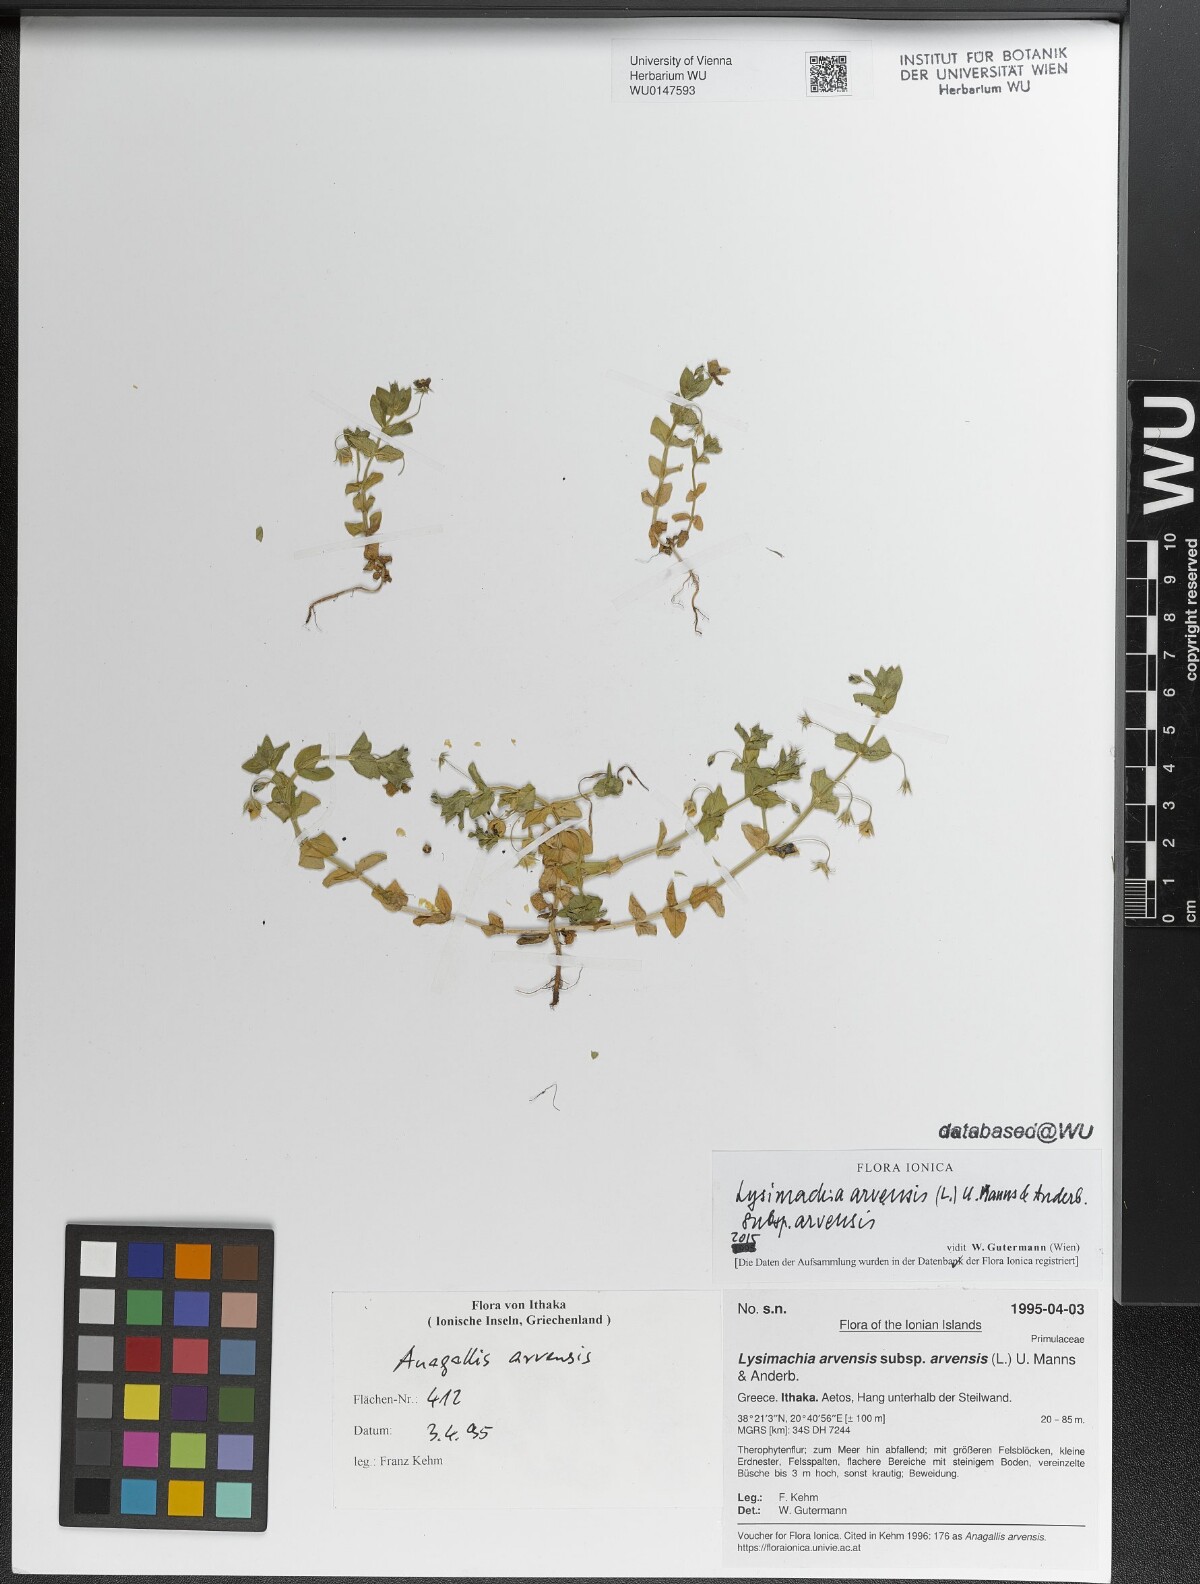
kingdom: Plantae
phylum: Tracheophyta
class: Magnoliopsida
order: Ericales
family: Primulaceae
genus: Lysimachia
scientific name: Lysimachia arvensis
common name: Scarlet pimpernel
